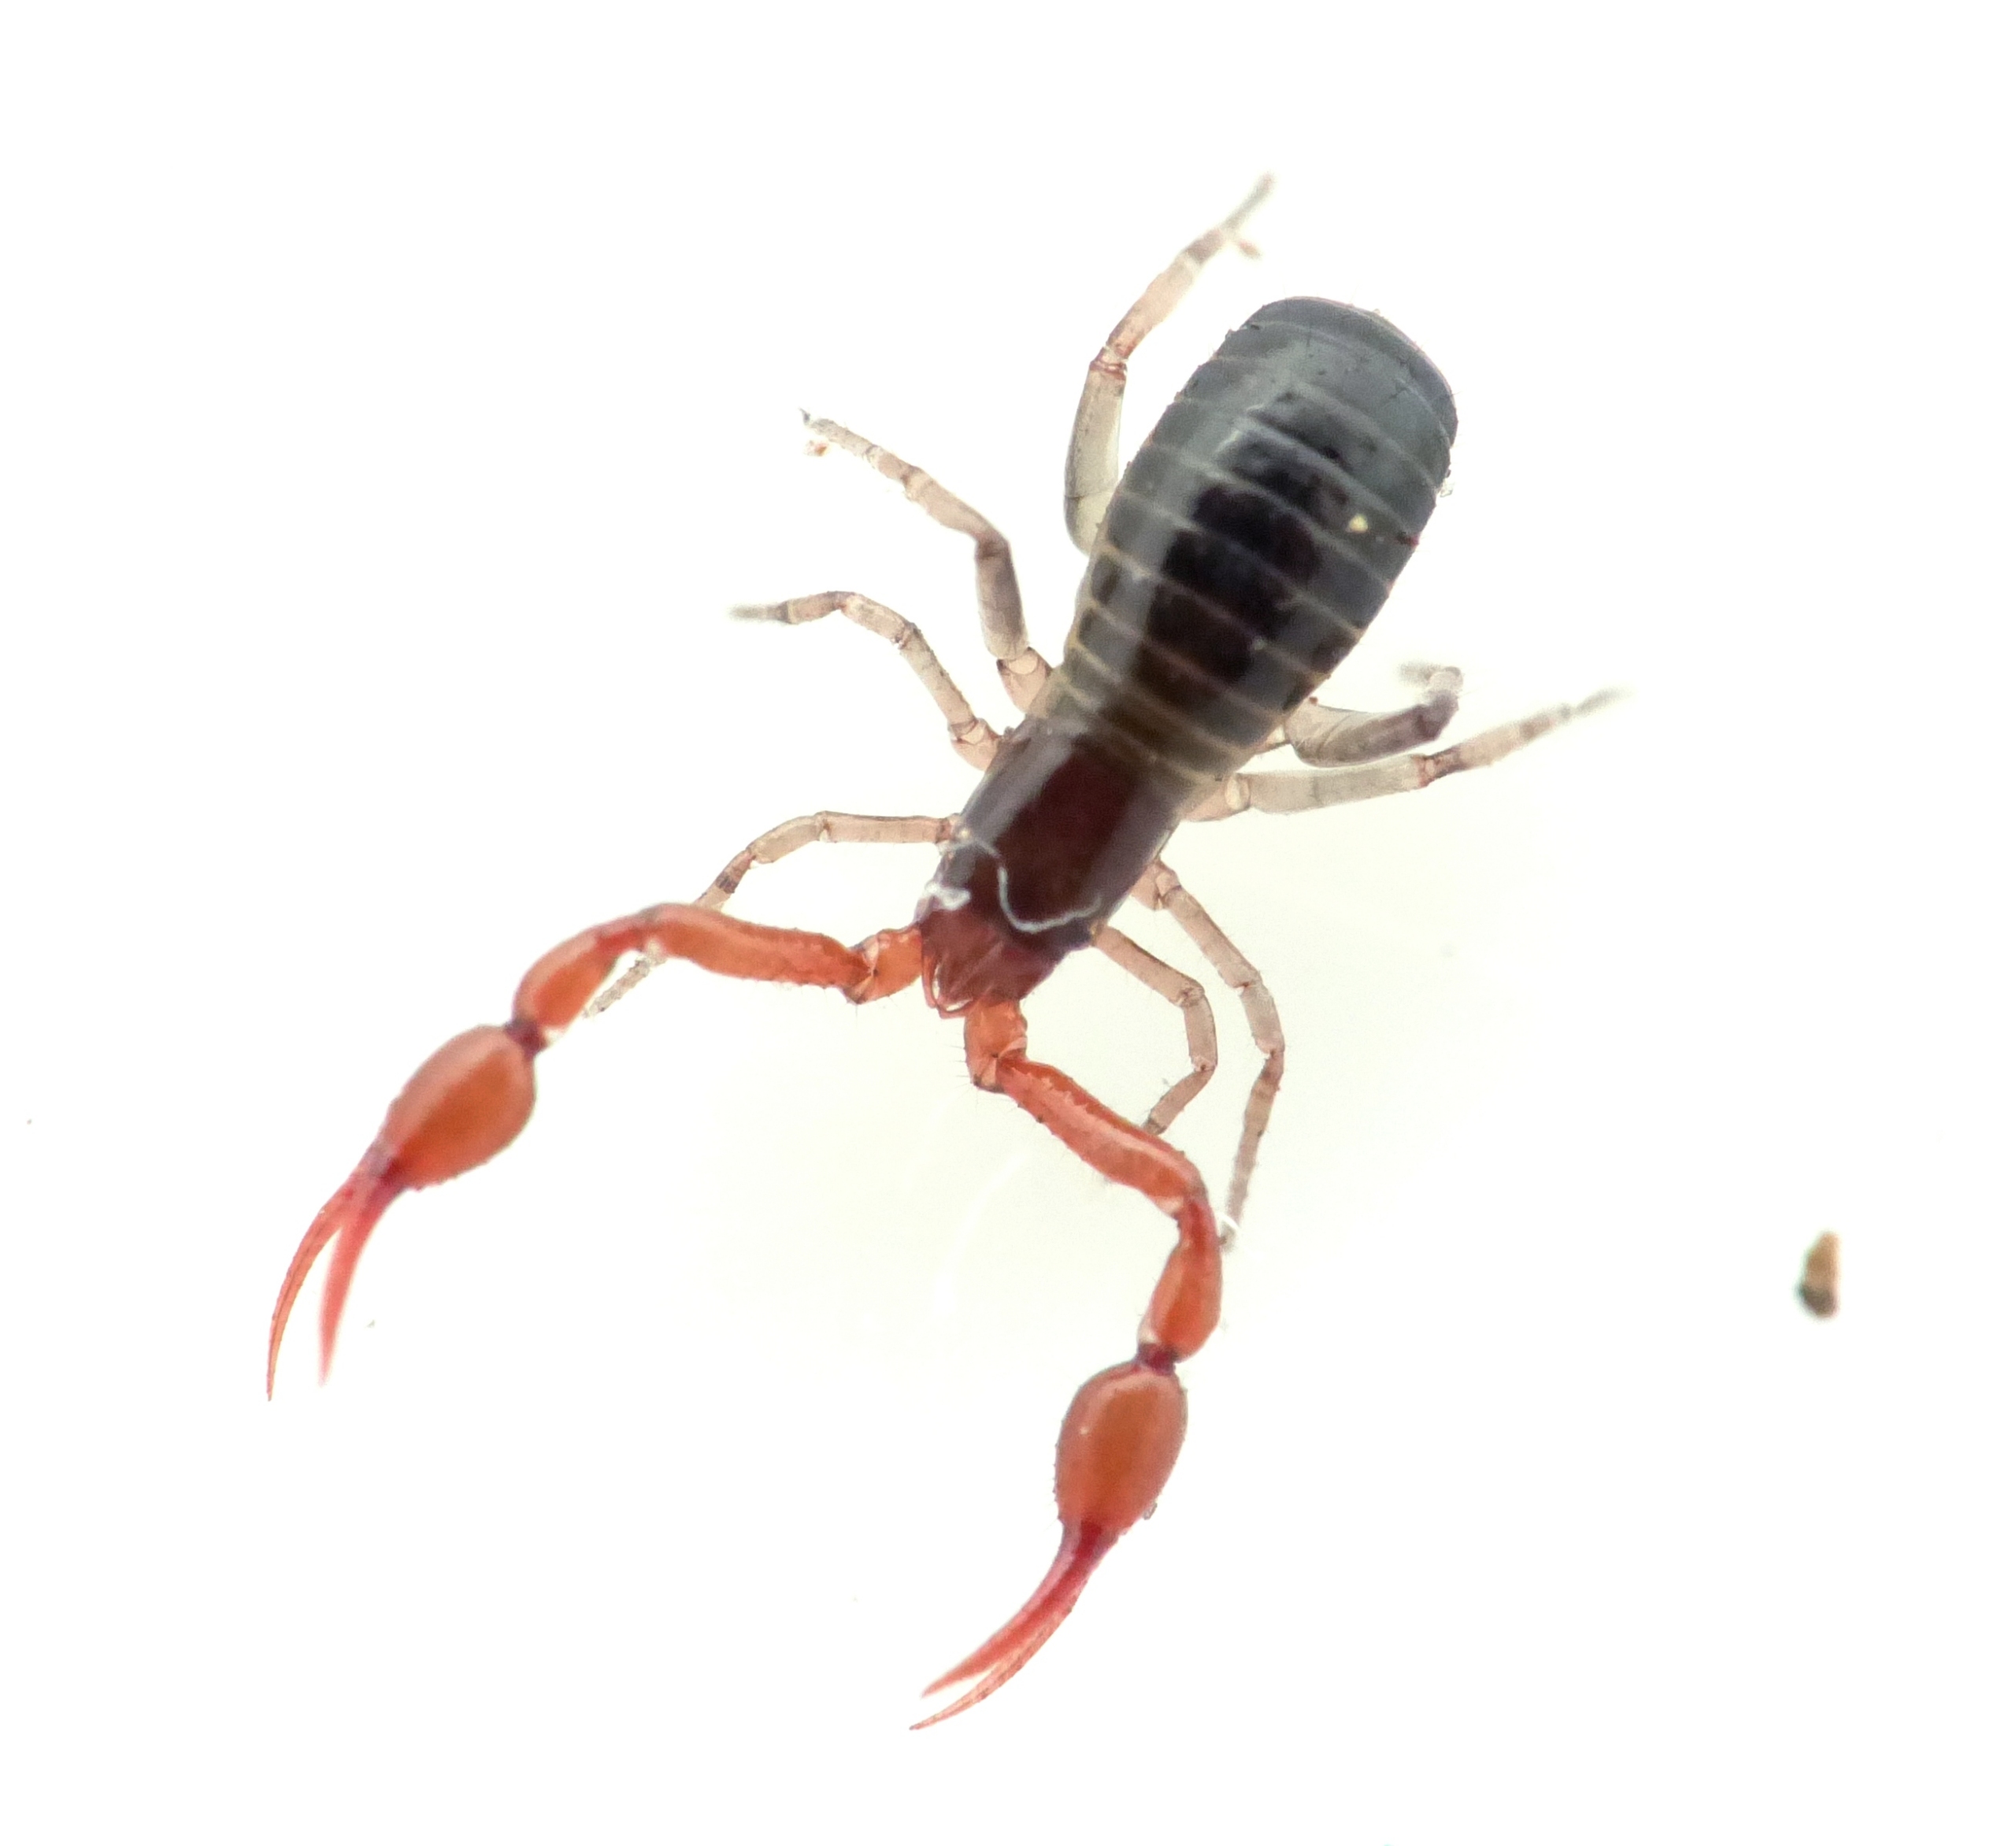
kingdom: Animalia
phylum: Arthropoda
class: Arachnida
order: Pseudoscorpiones
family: Neobisiidae
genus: Neobisium
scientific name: Neobisium carcinoides
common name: Almindelig mosskorpion
